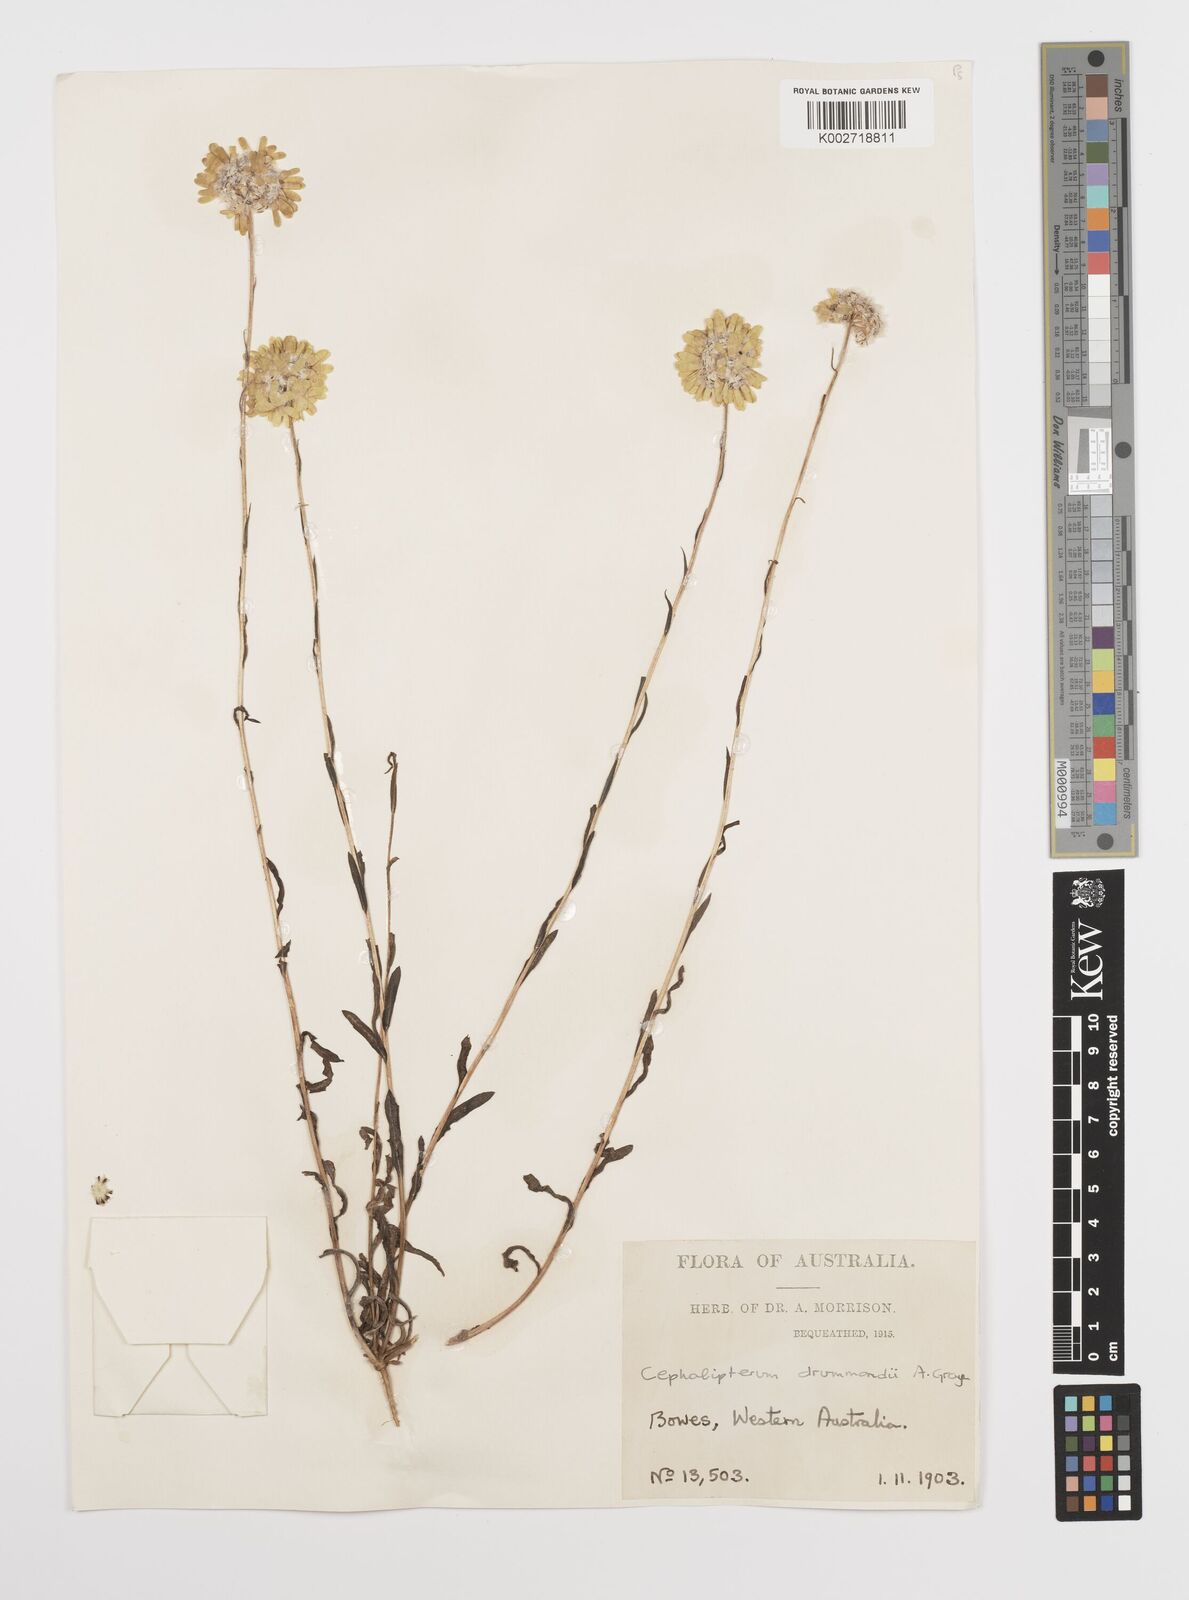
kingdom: Plantae
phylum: Tracheophyta
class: Magnoliopsida
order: Asterales
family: Asteraceae
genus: Cephalipterum
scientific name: Cephalipterum drummondii
